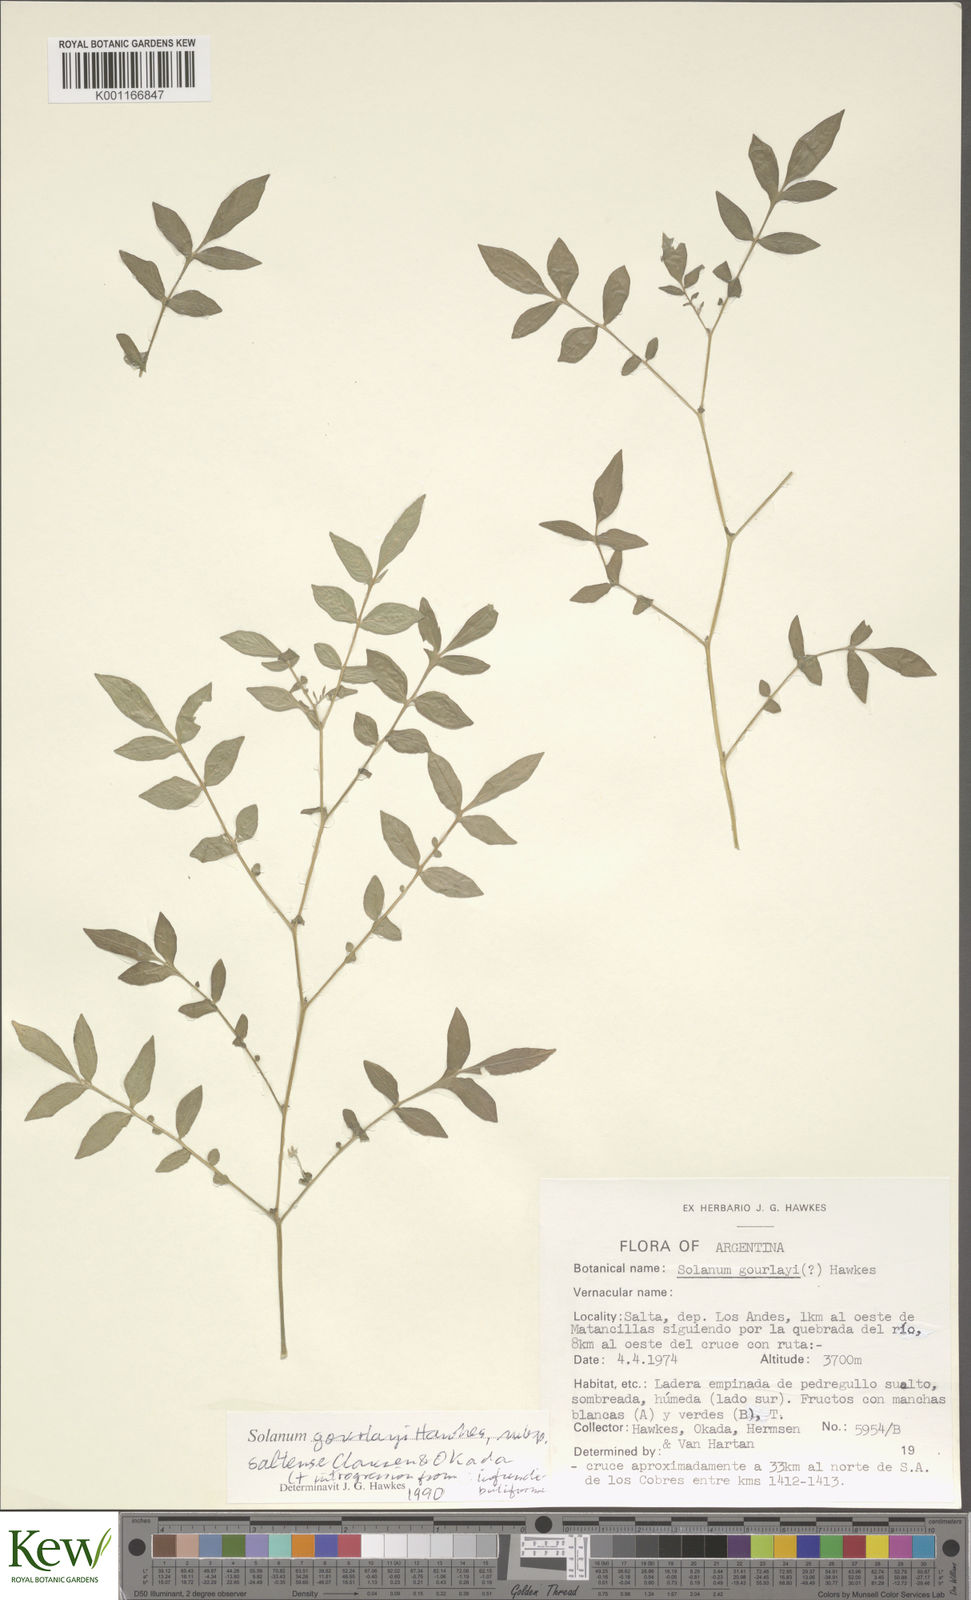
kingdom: Plantae
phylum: Tracheophyta
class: Magnoliopsida
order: Solanales
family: Solanaceae
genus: Solanum
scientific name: Solanum brevicaule
